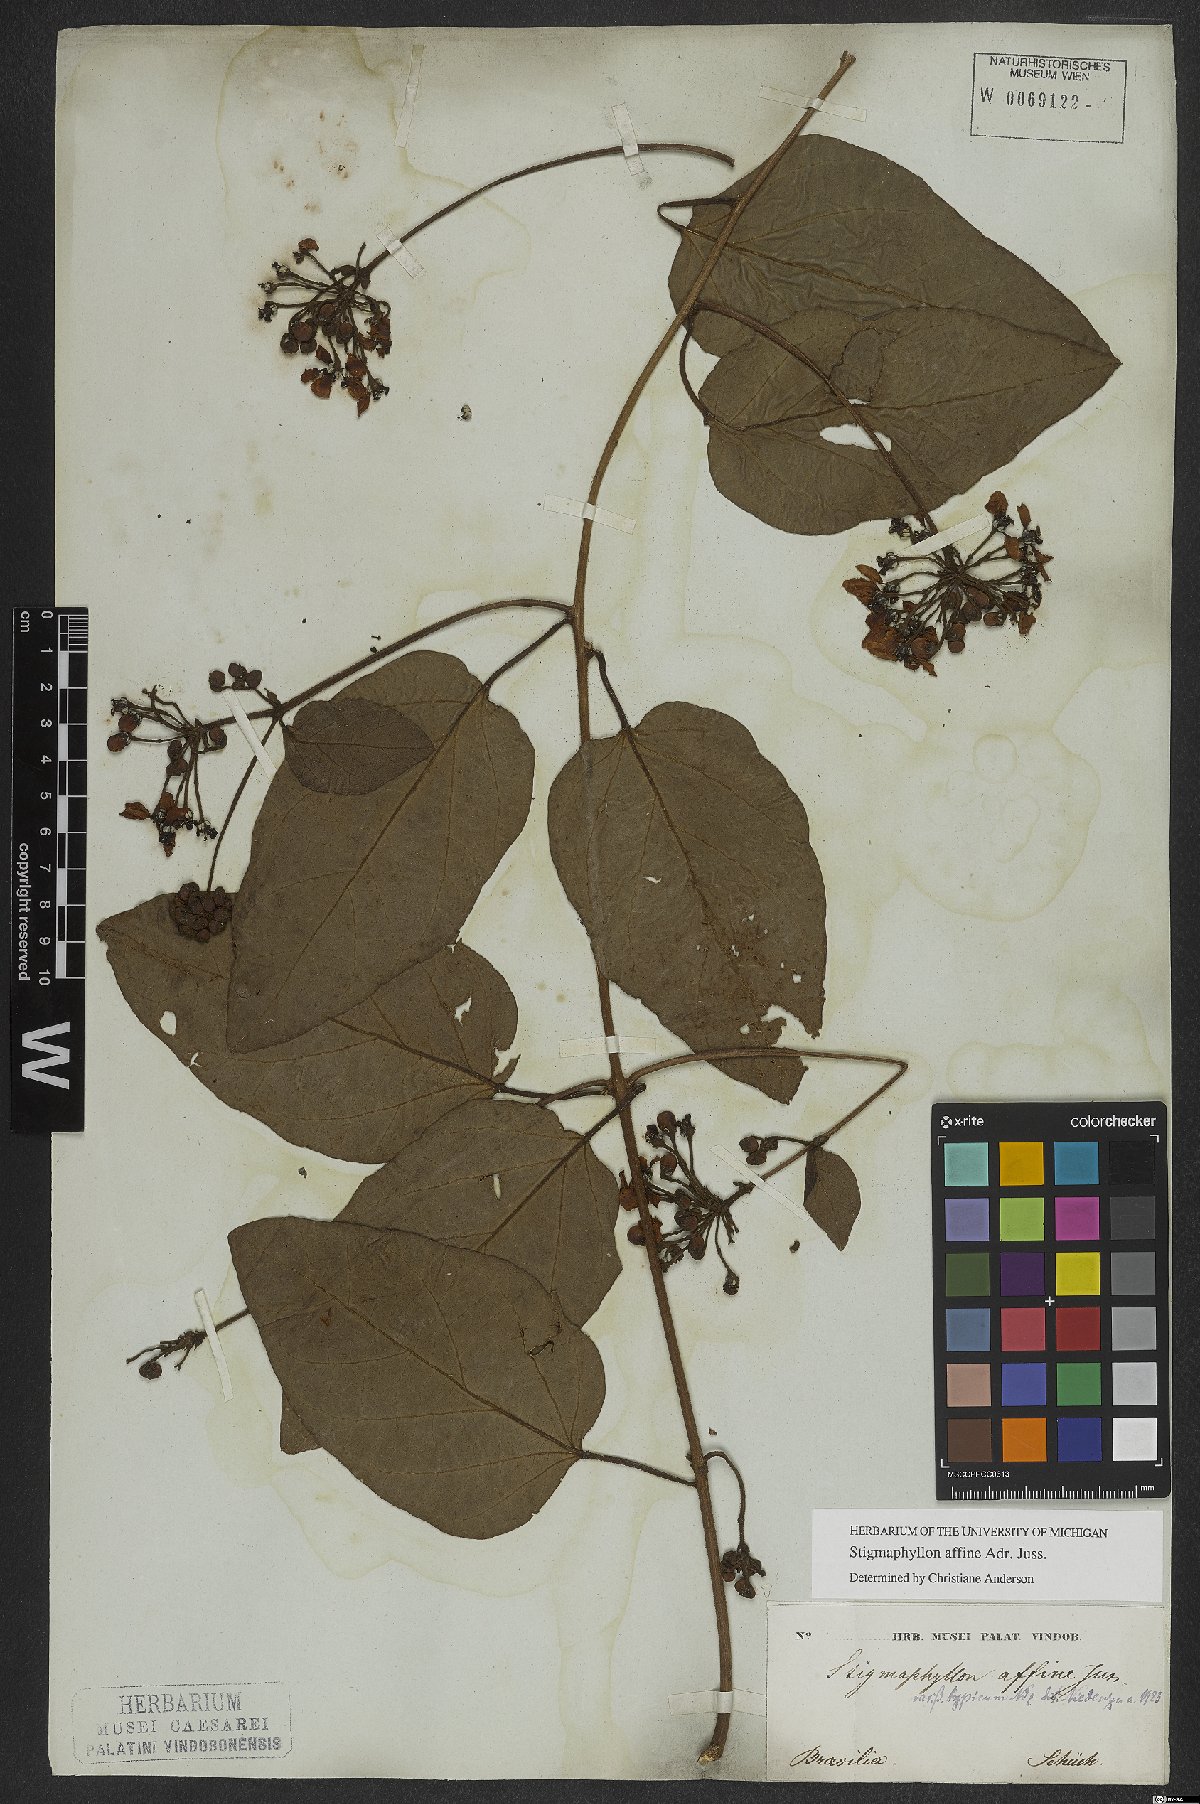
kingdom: Plantae
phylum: Tracheophyta
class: Magnoliopsida
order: Malpighiales
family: Malpighiaceae
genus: Stigmaphyllon
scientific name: Stigmaphyllon affine
